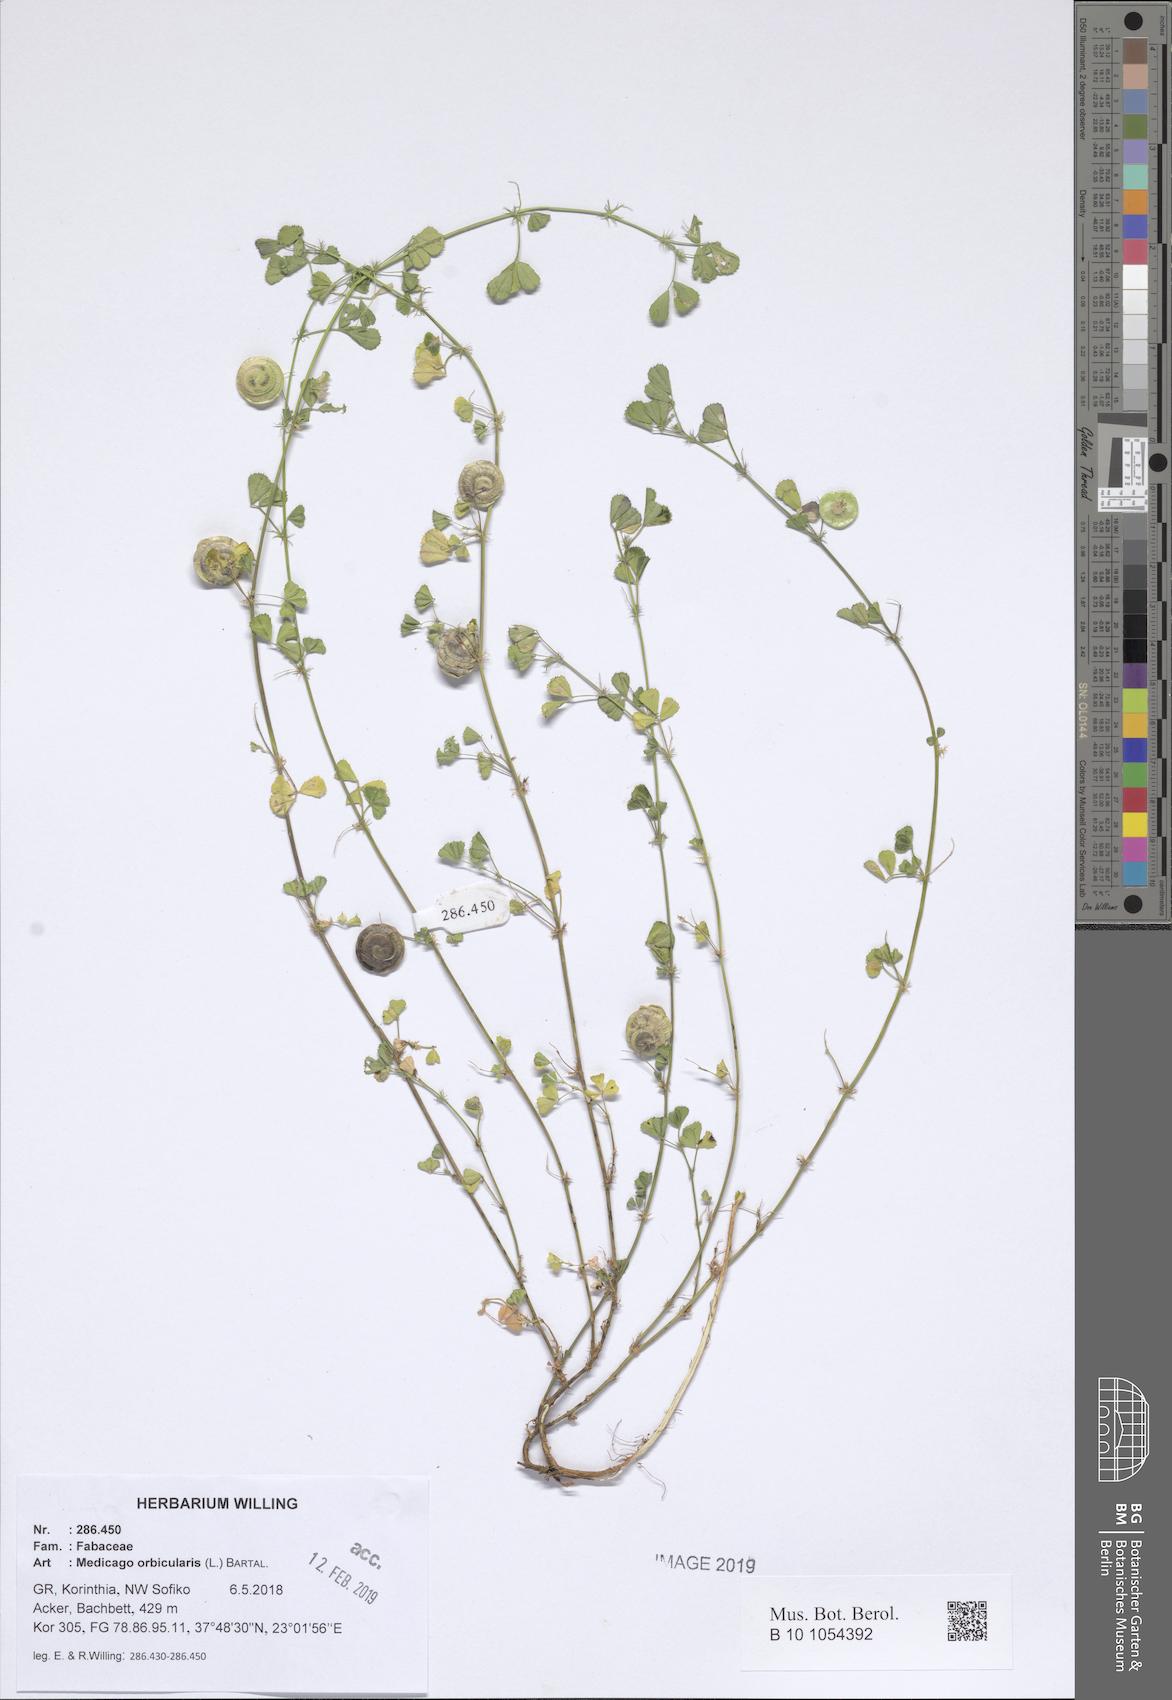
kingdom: Plantae
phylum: Tracheophyta
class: Magnoliopsida
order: Fabales
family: Fabaceae
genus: Medicago
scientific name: Medicago orbicularis
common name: Button medick
